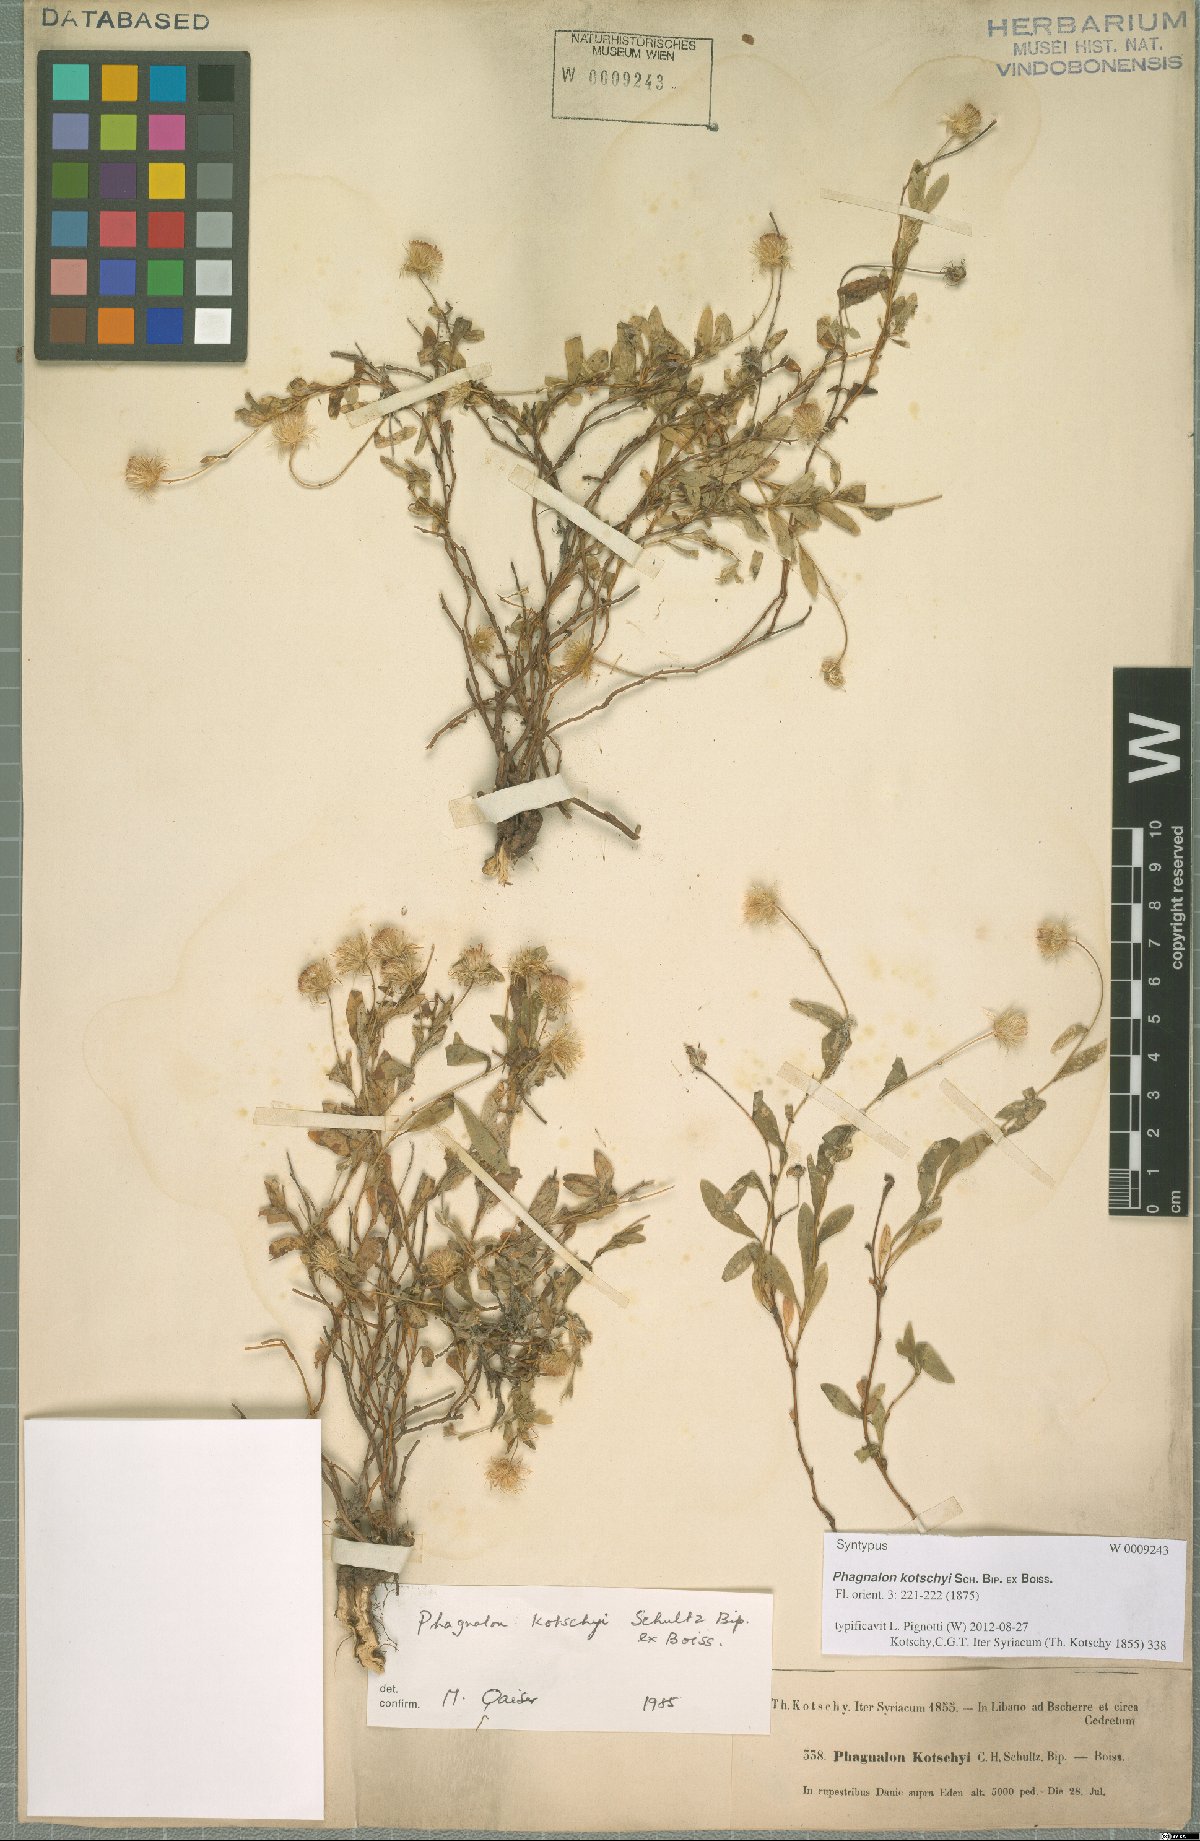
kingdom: Plantae
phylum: Tracheophyta
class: Magnoliopsida
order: Asterales
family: Asteraceae
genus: Phagnalon
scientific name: Phagnalon kotschyi
